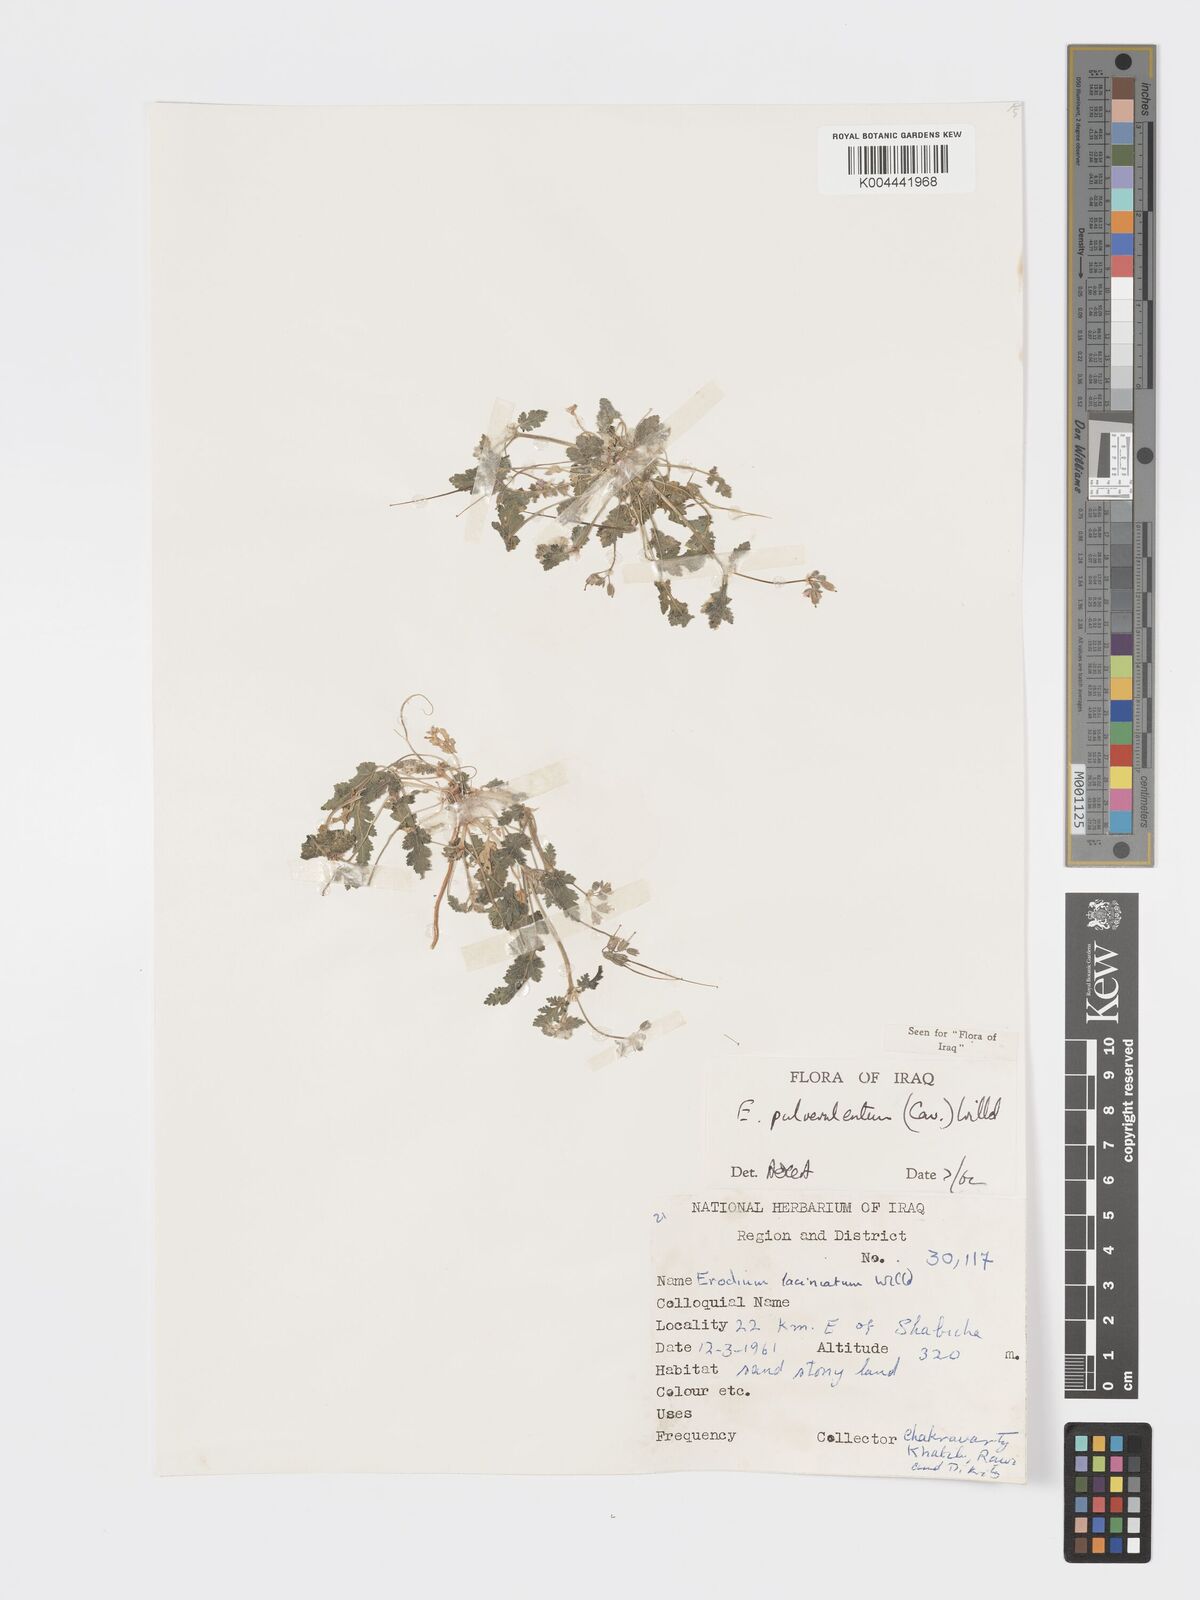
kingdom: Plantae
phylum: Tracheophyta
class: Magnoliopsida
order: Geraniales
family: Geraniaceae
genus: Erodium
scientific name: Erodium laciniatum
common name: Cutleaf stork's bill
